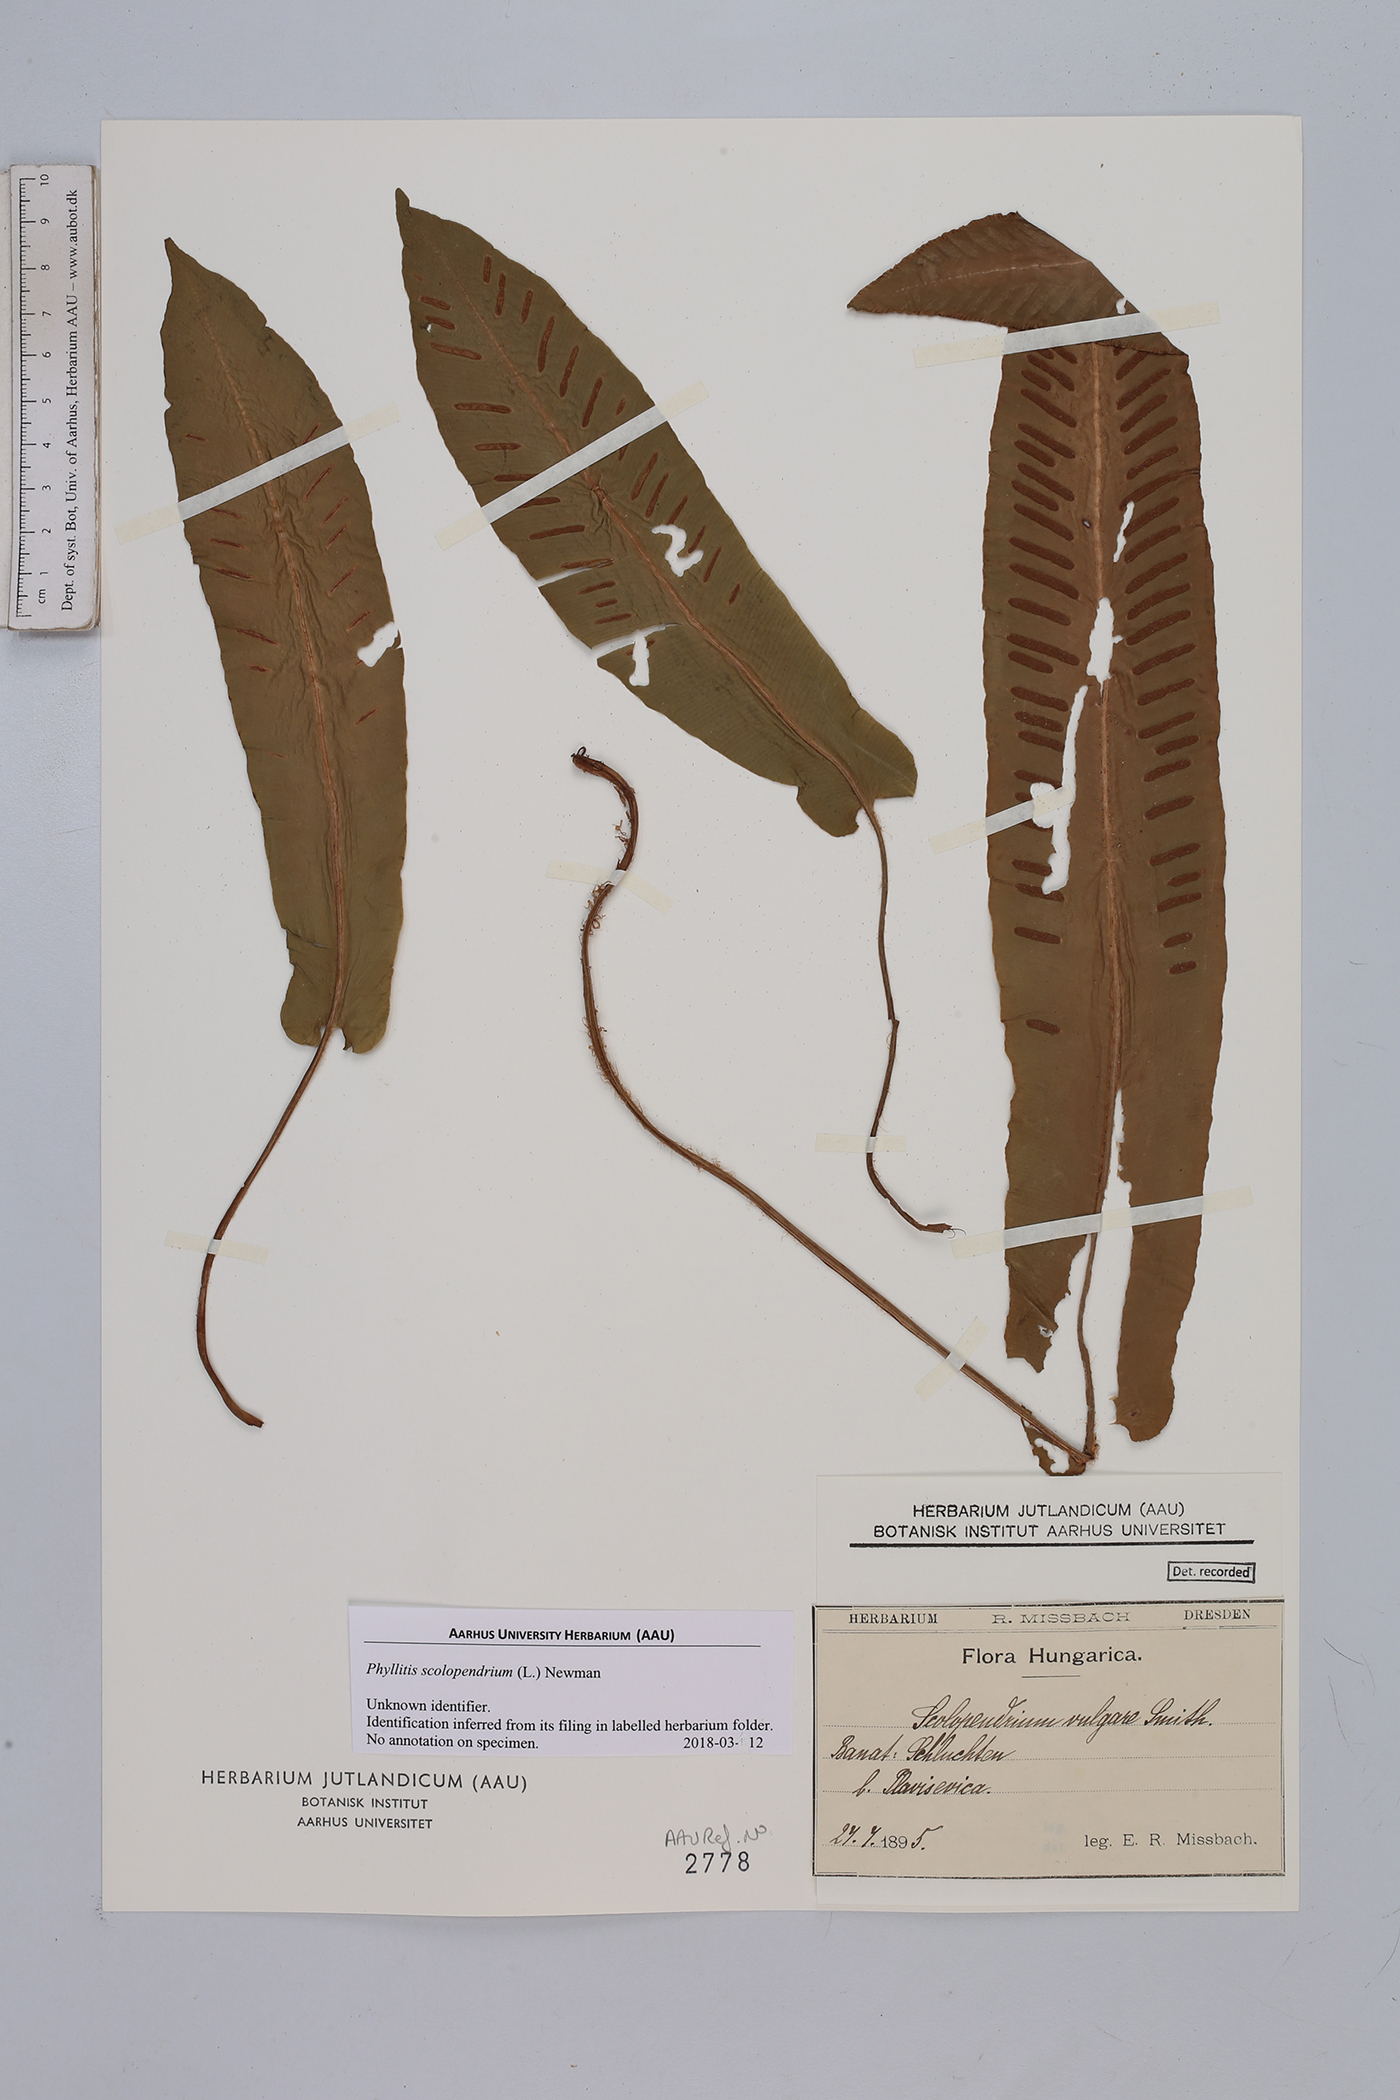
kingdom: Plantae
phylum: Tracheophyta
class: Polypodiopsida
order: Polypodiales
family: Aspleniaceae
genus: Asplenium
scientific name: Asplenium scolopendrium
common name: Hart's-tongue fern
